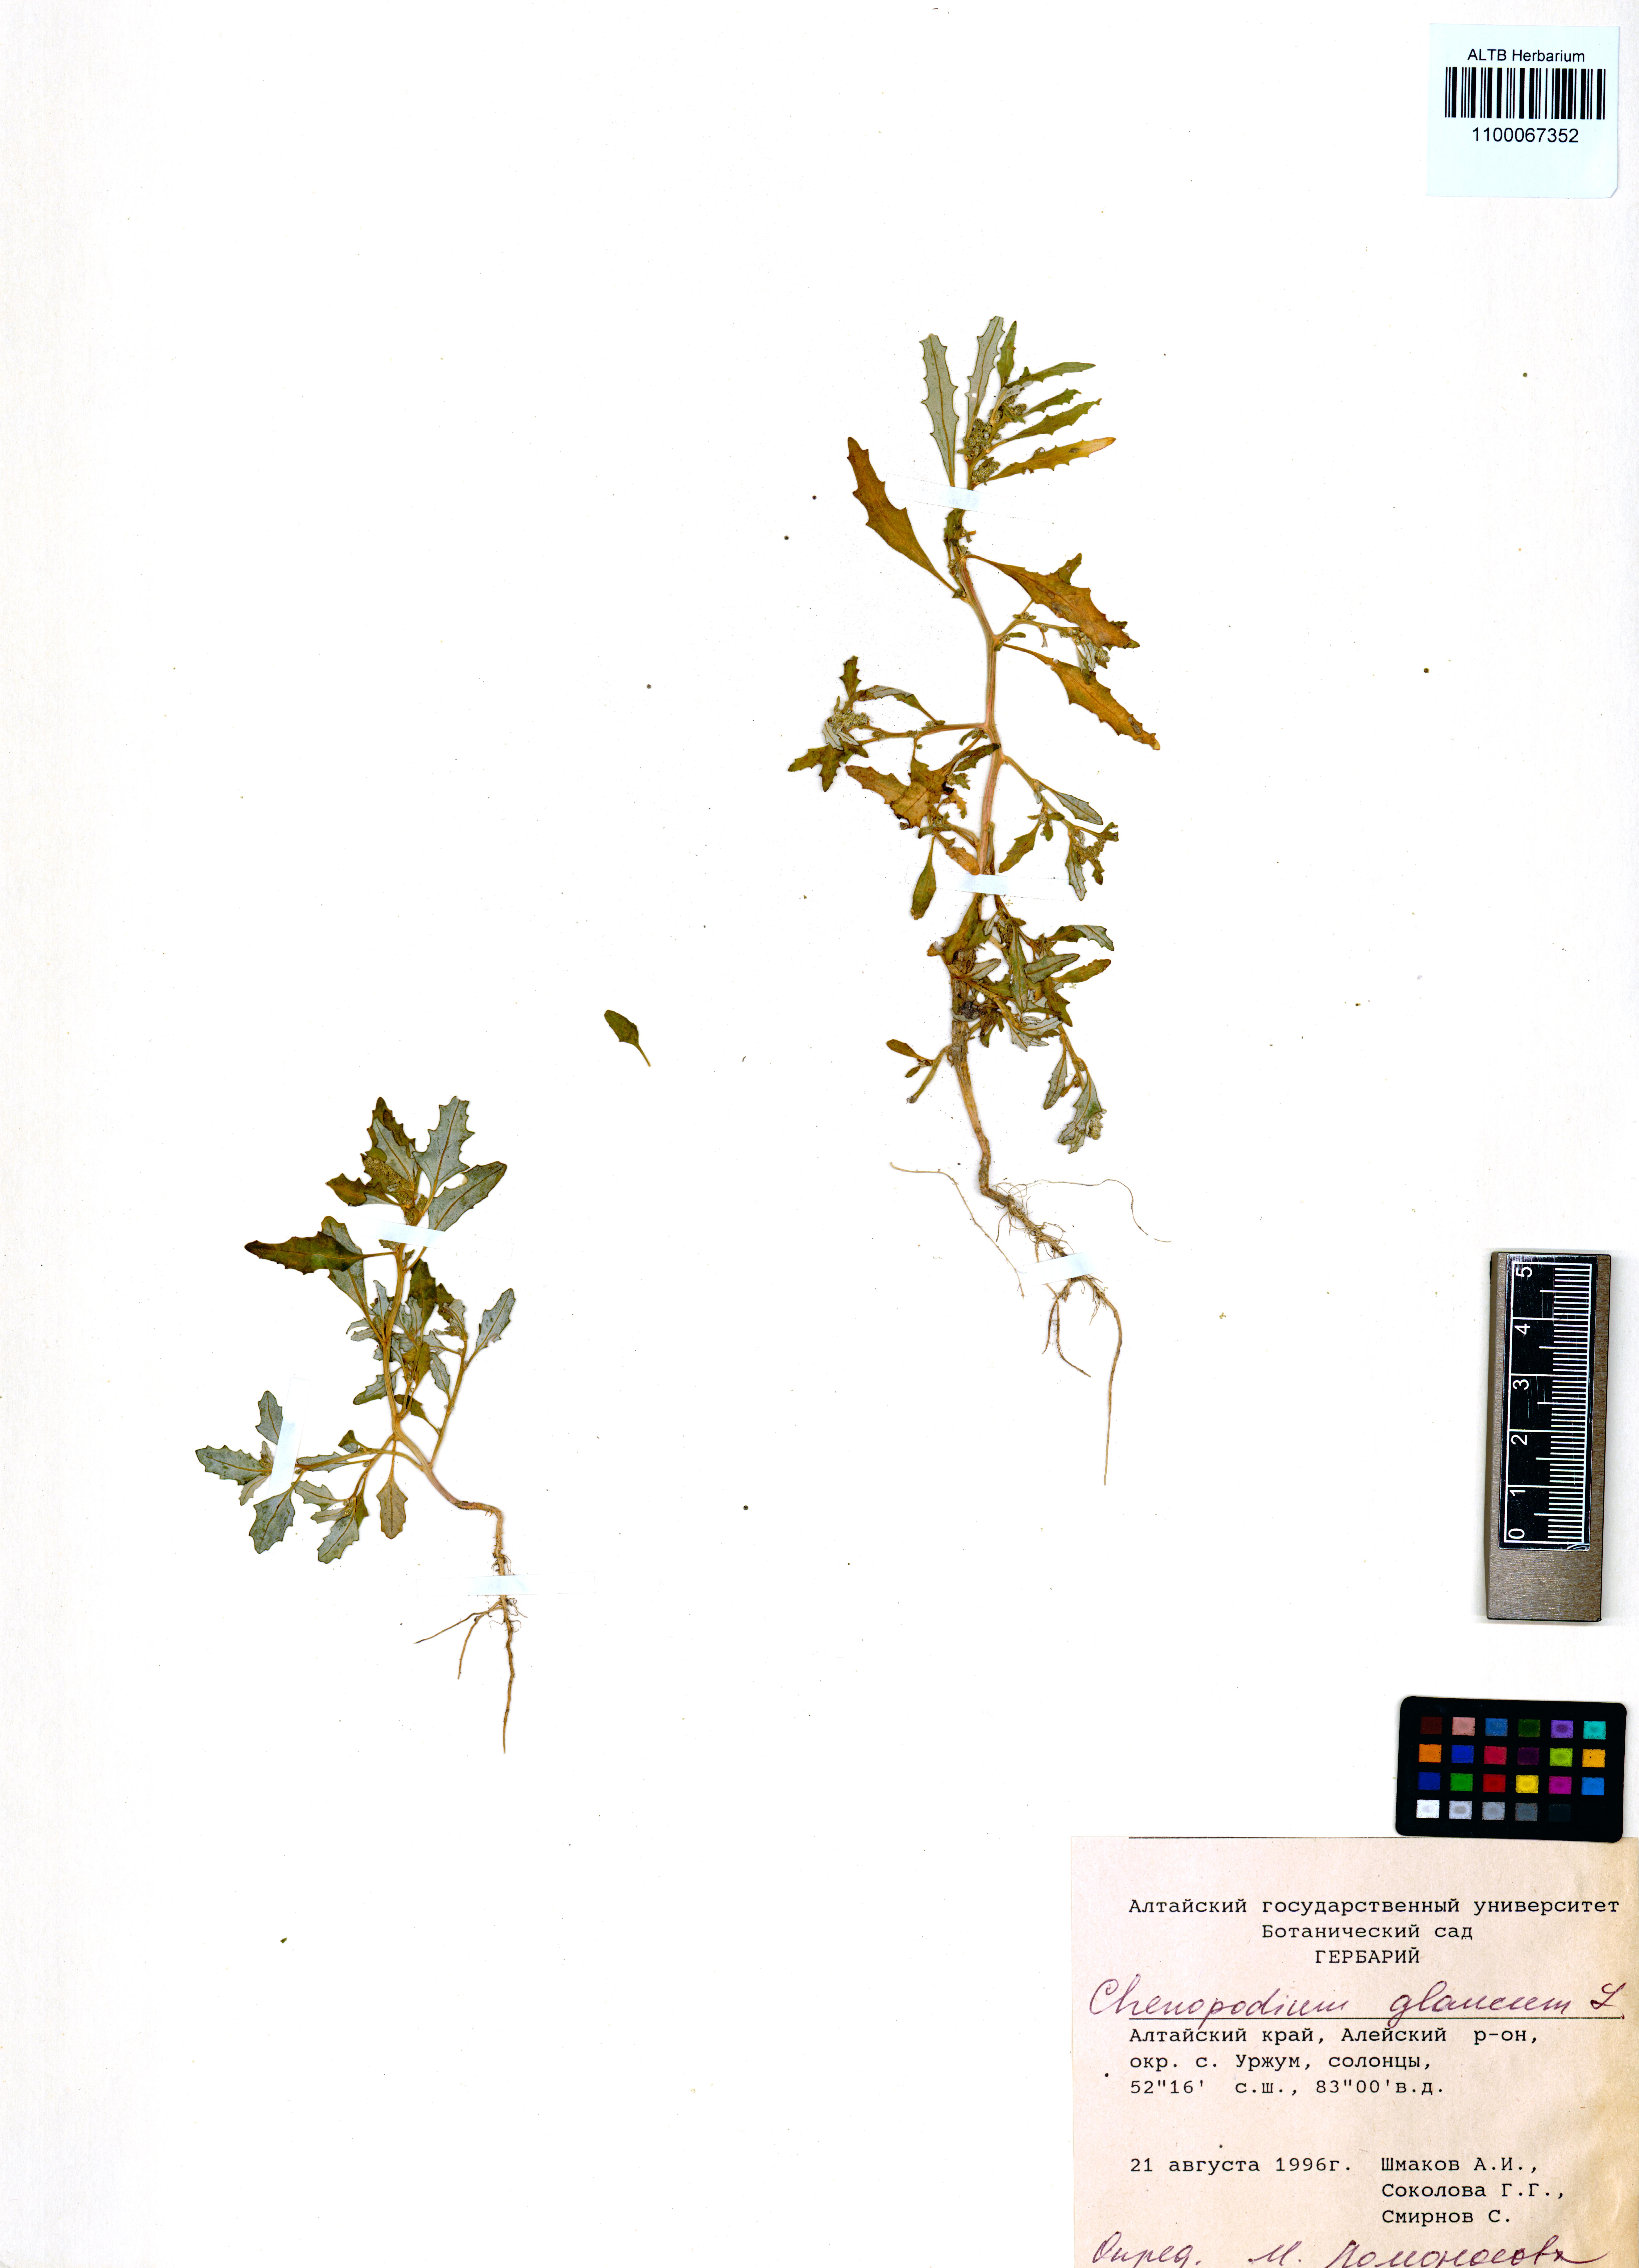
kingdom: Plantae
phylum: Tracheophyta
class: Magnoliopsida
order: Caryophyllales
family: Amaranthaceae
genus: Oxybasis
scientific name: Oxybasis glauca
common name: Glaucous goosefoot
